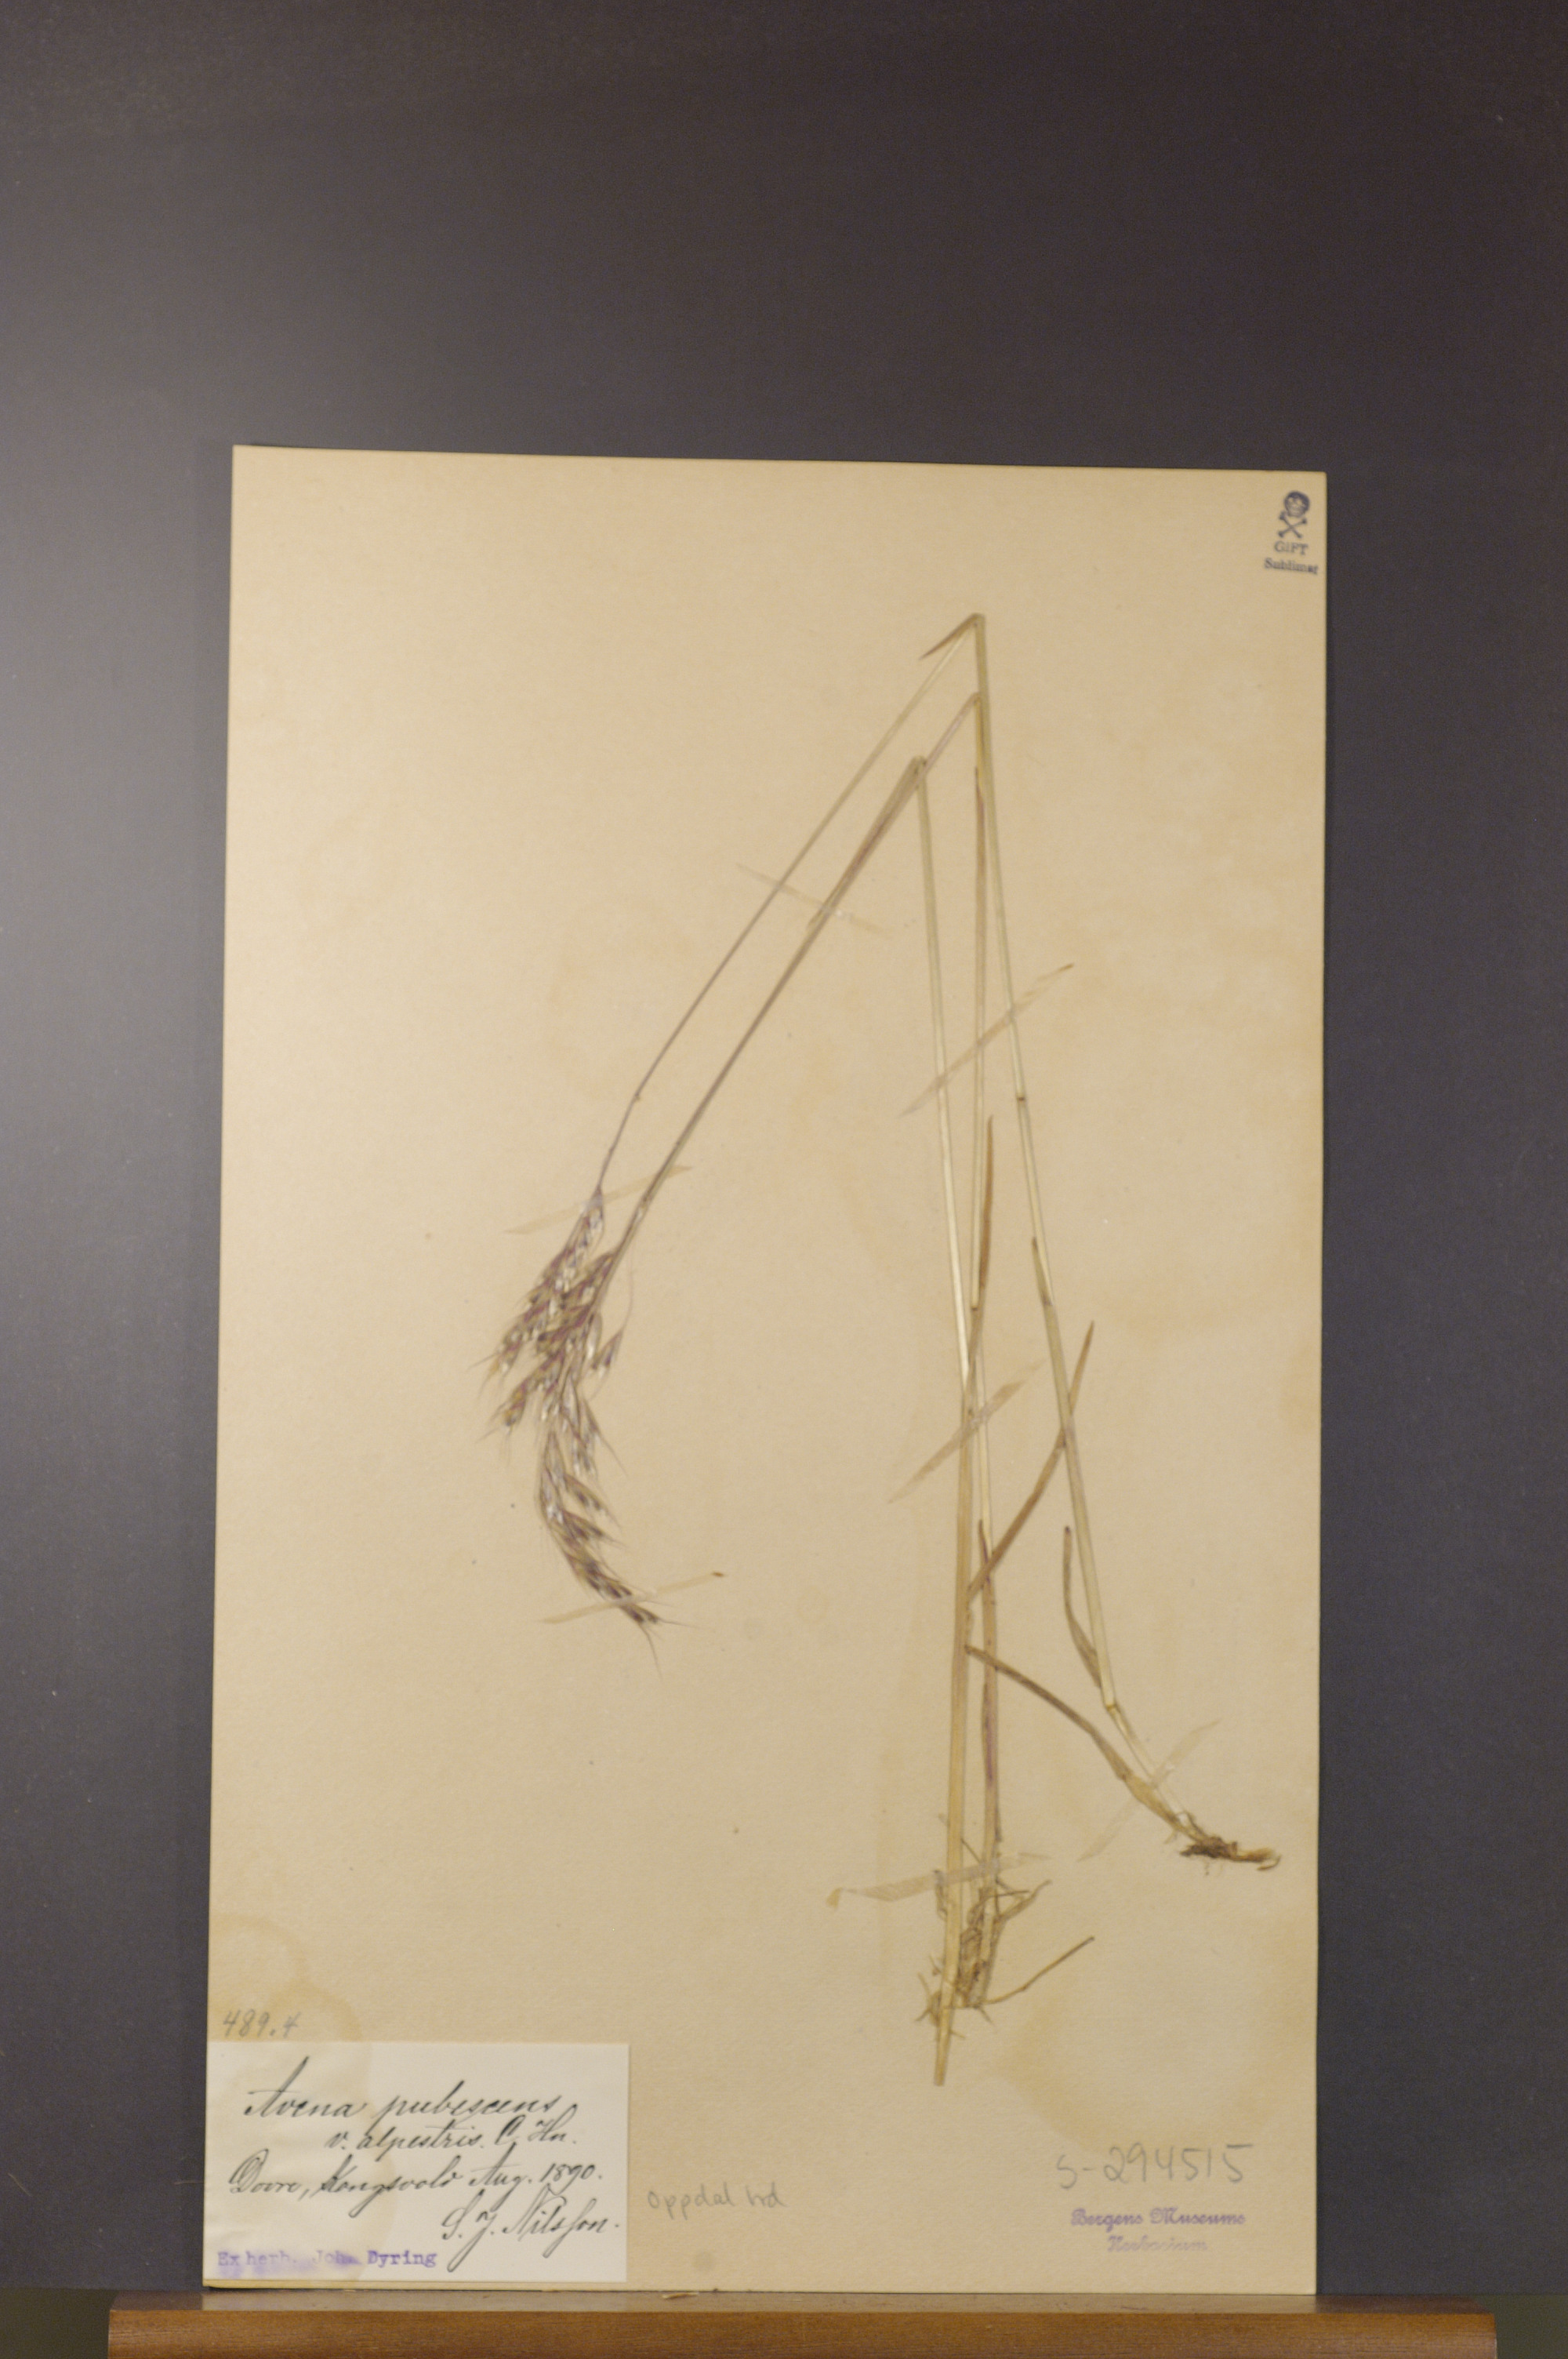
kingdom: Plantae
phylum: Tracheophyta
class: Liliopsida
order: Poales
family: Poaceae
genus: Avenula
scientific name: Avenula pubescens
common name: Downy alpine oatgrass
